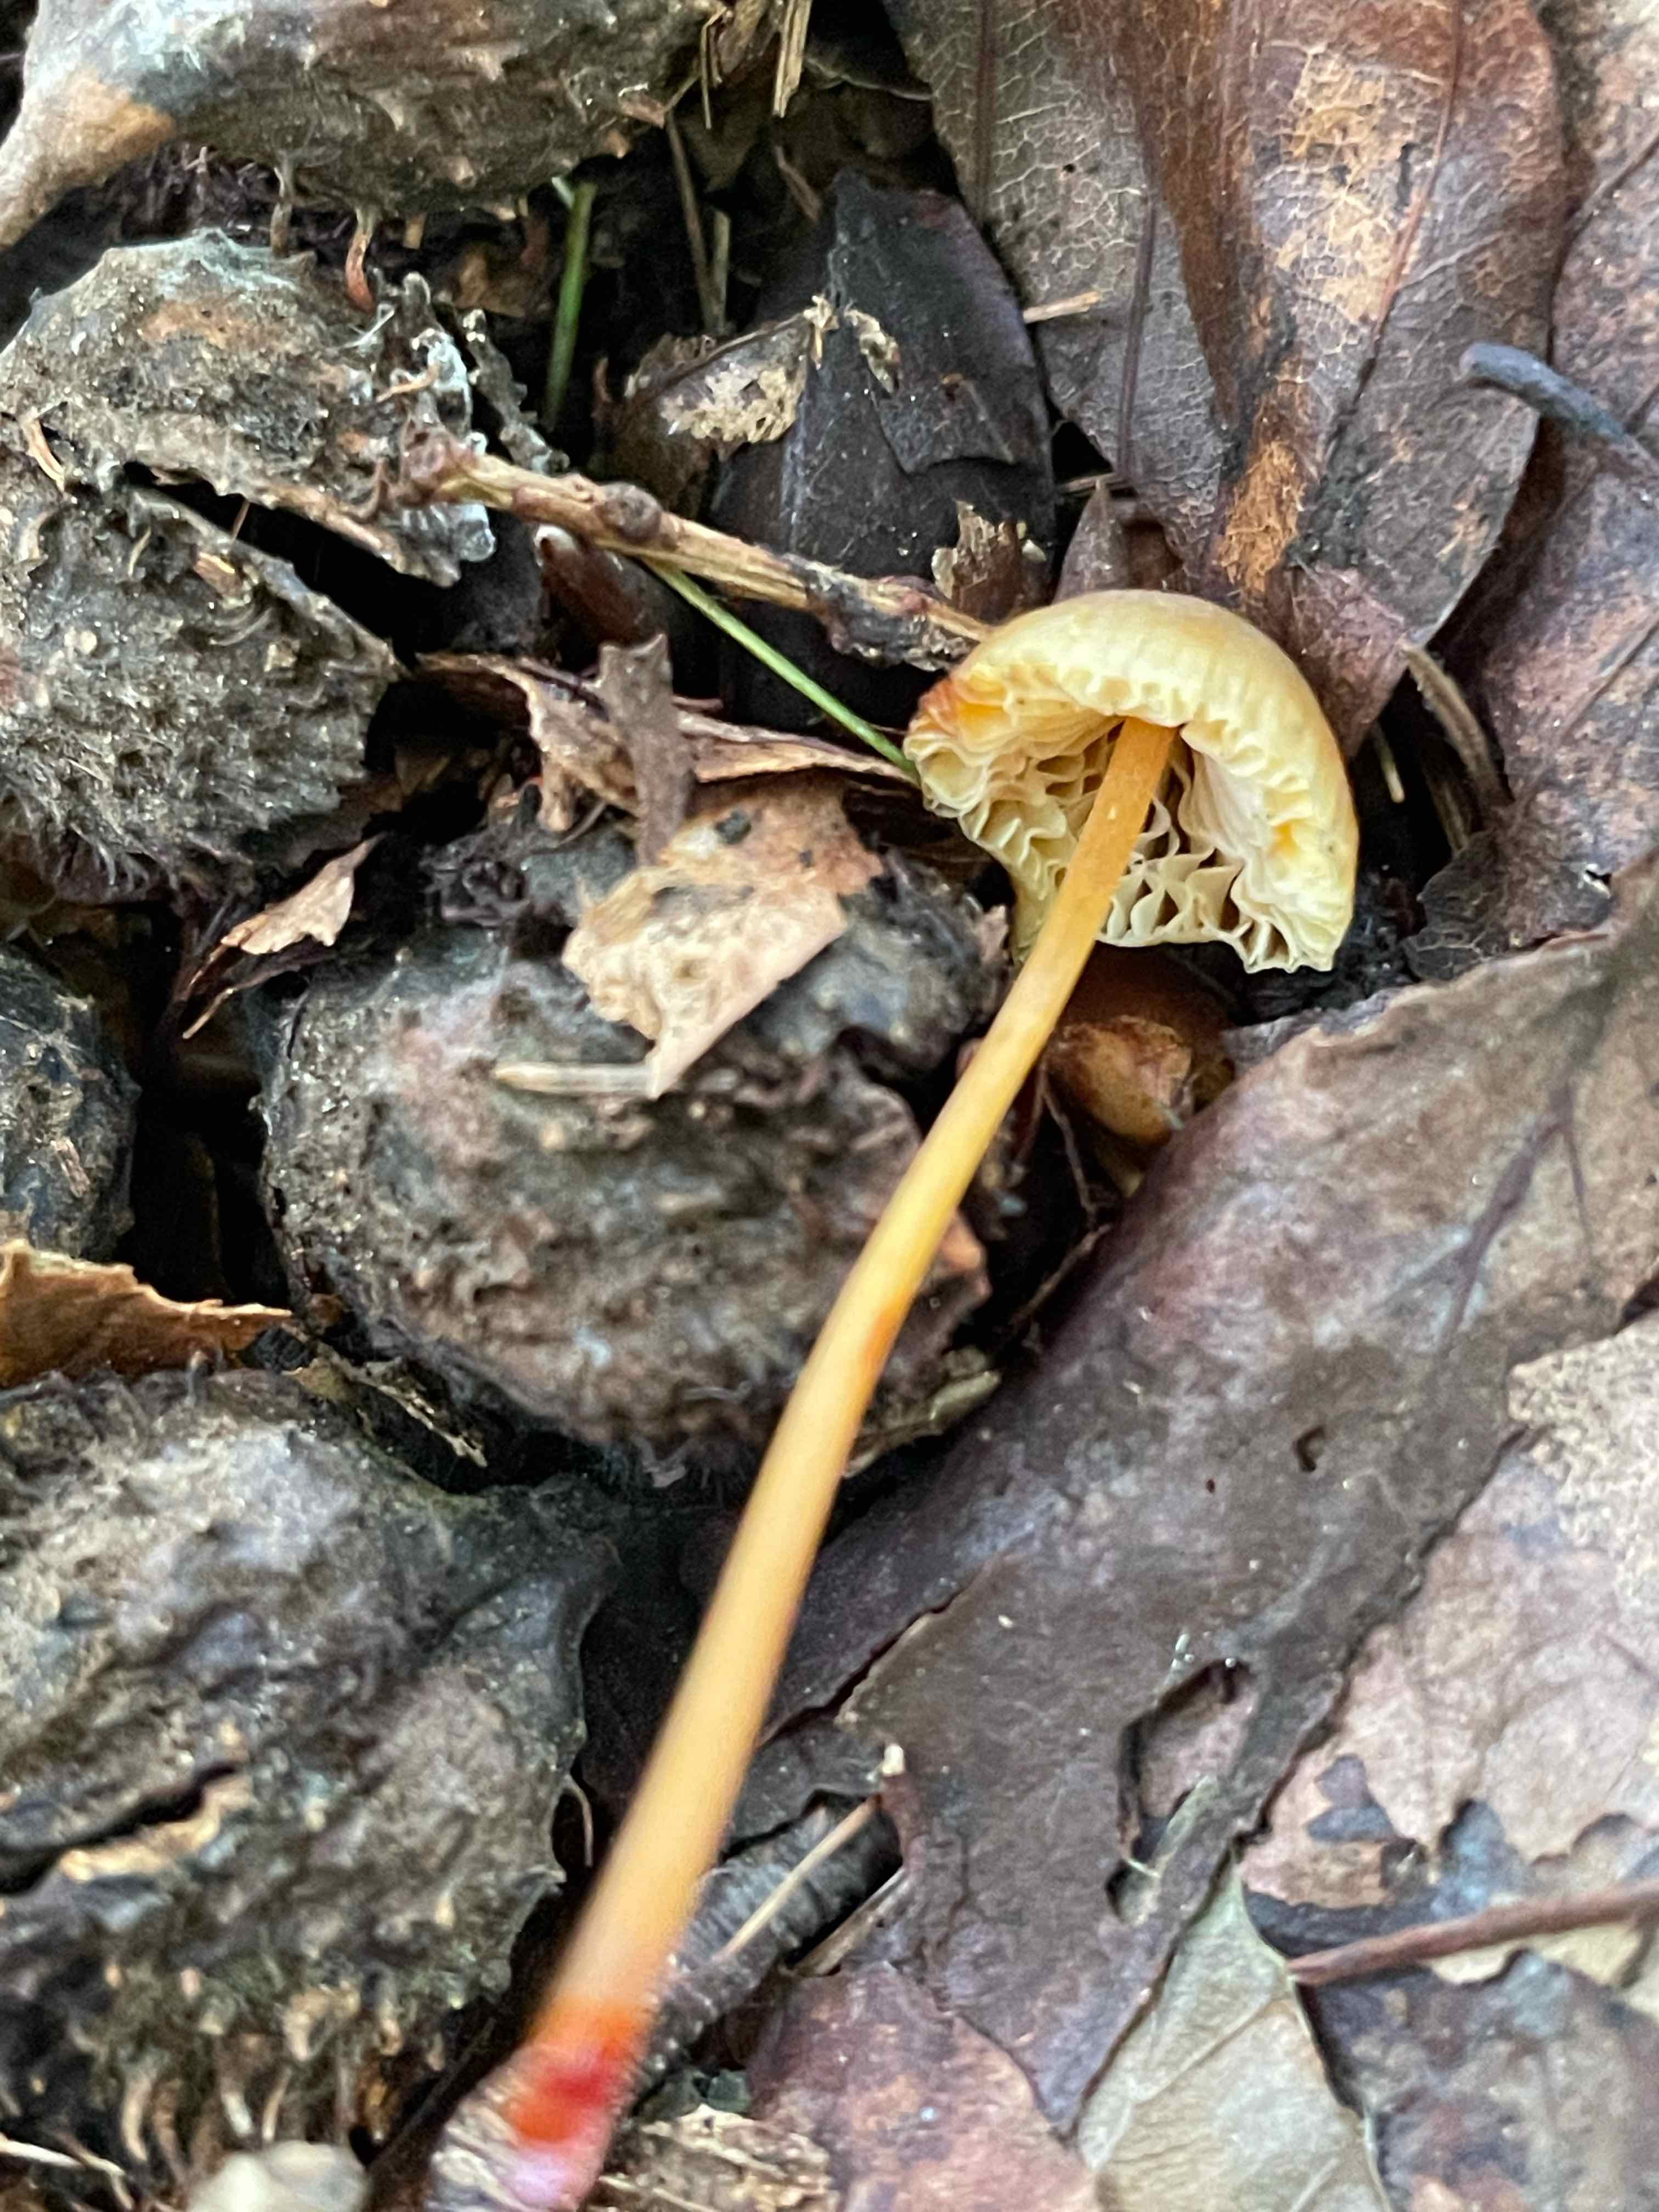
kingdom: Fungi
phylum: Basidiomycota
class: Agaricomycetes
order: Agaricales
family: Mycenaceae
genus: Mycena
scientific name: Mycena crocata
